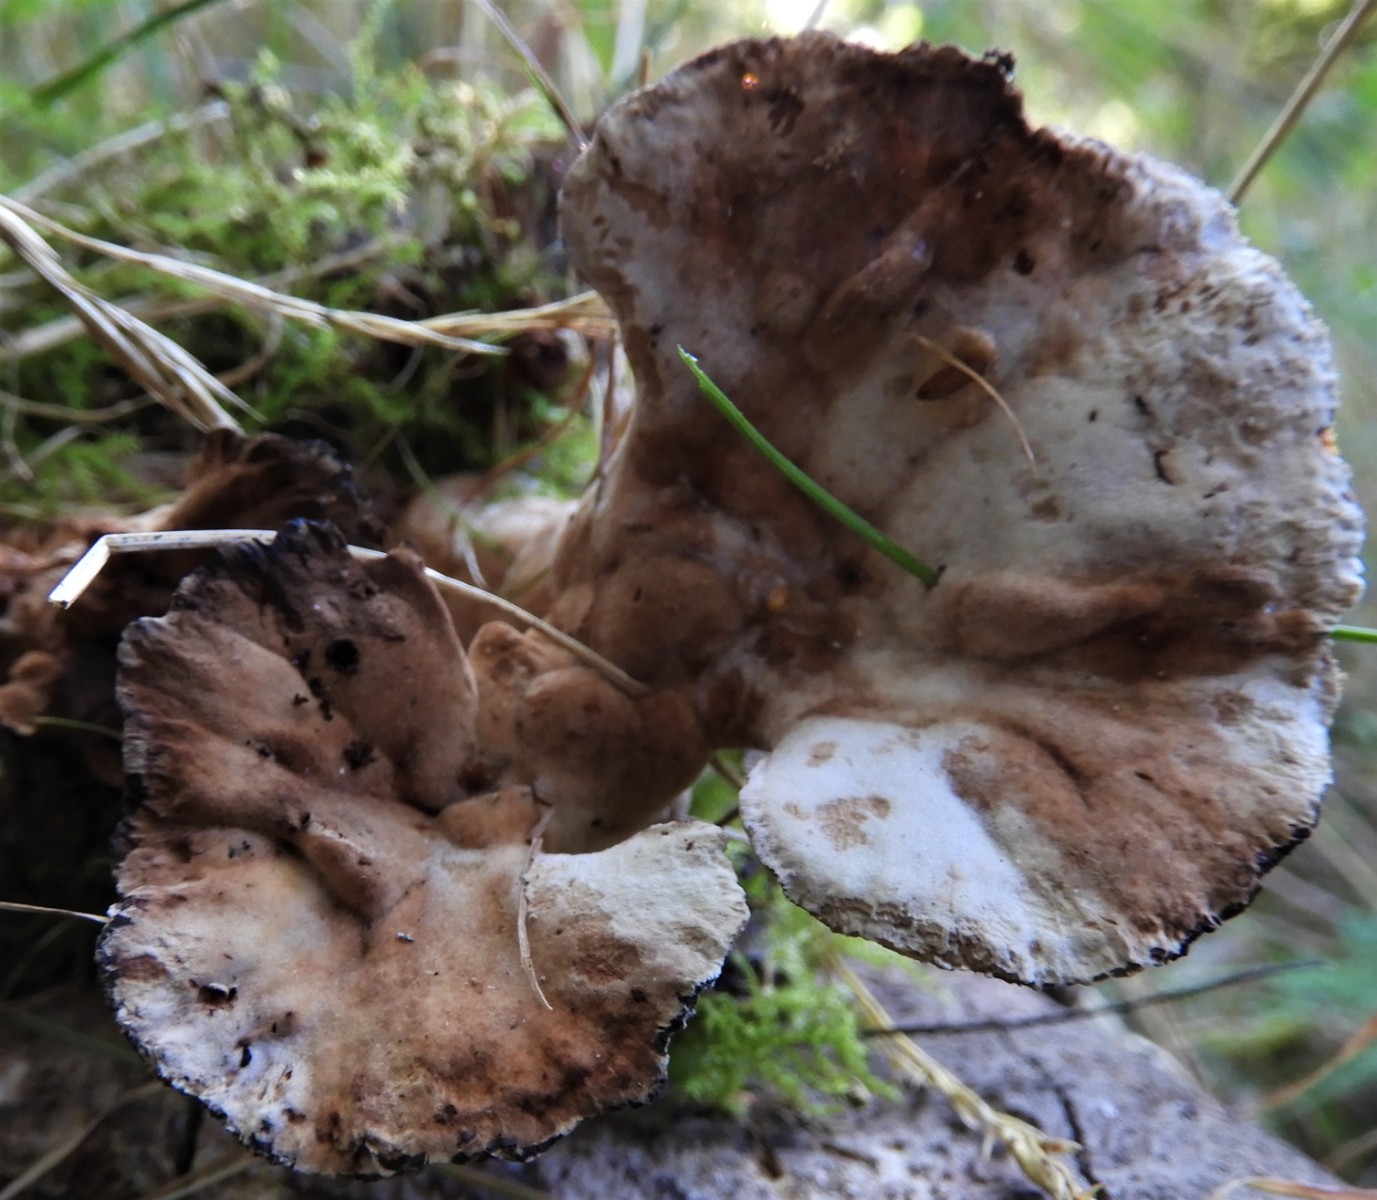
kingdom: Fungi
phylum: Basidiomycota
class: Agaricomycetes
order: Polyporales
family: Podoscyphaceae
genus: Abortiporus
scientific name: Abortiporus biennis
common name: rødmende pjalteporesvamp
